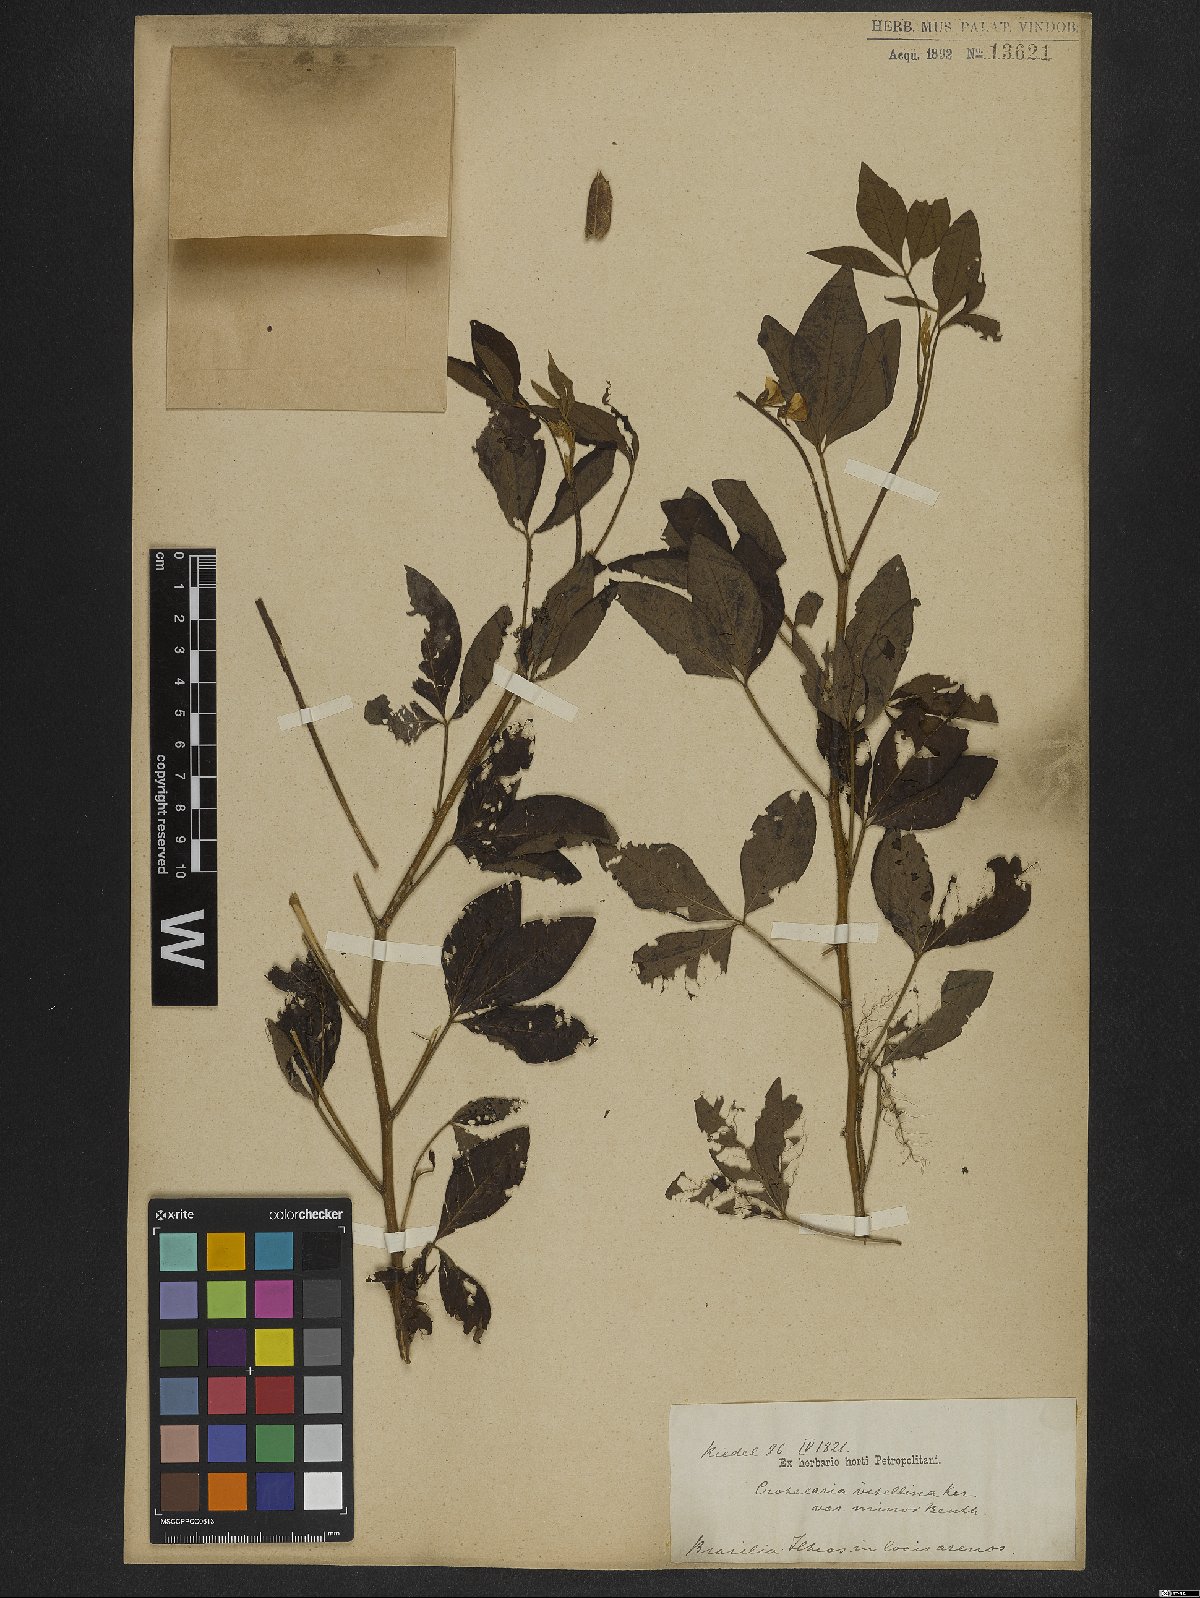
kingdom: Plantae
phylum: Tracheophyta
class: Magnoliopsida
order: Fabales
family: Fabaceae
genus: Crotalaria
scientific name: Crotalaria vitellina
